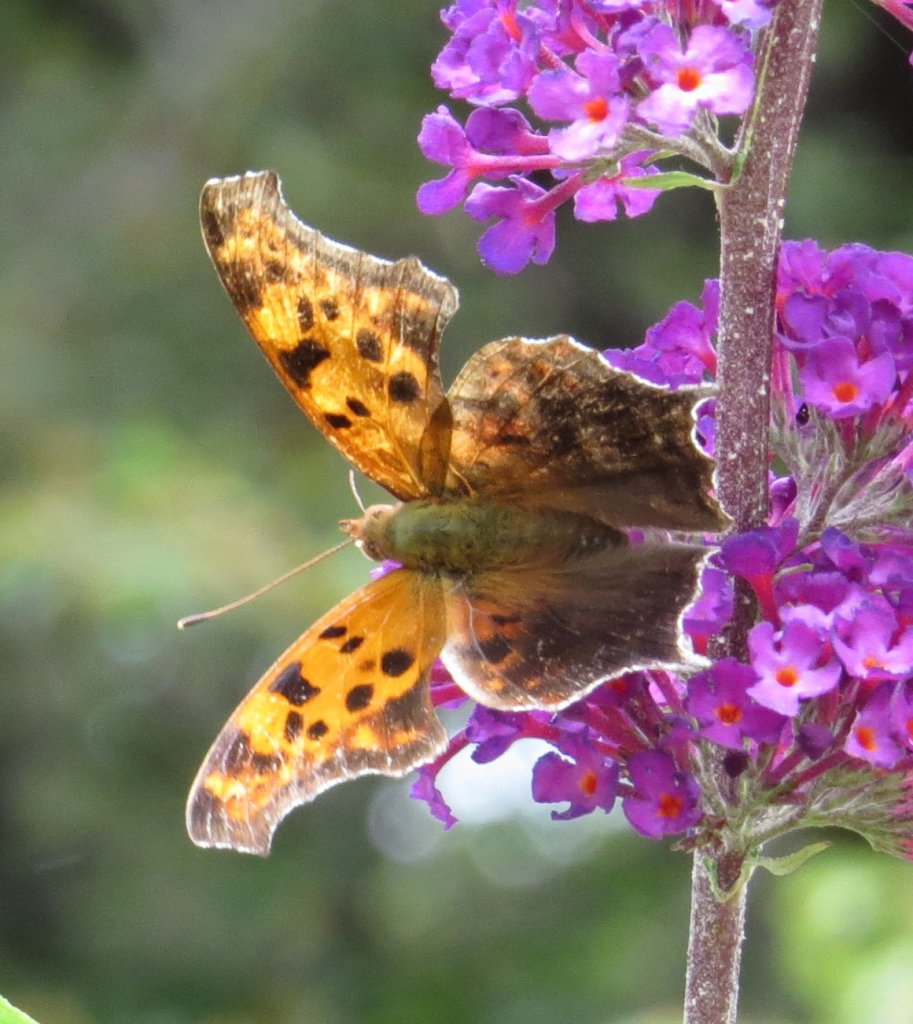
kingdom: Animalia
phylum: Arthropoda
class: Insecta
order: Lepidoptera
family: Nymphalidae
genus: Polygonia
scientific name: Polygonia interrogationis
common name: Question Mark
